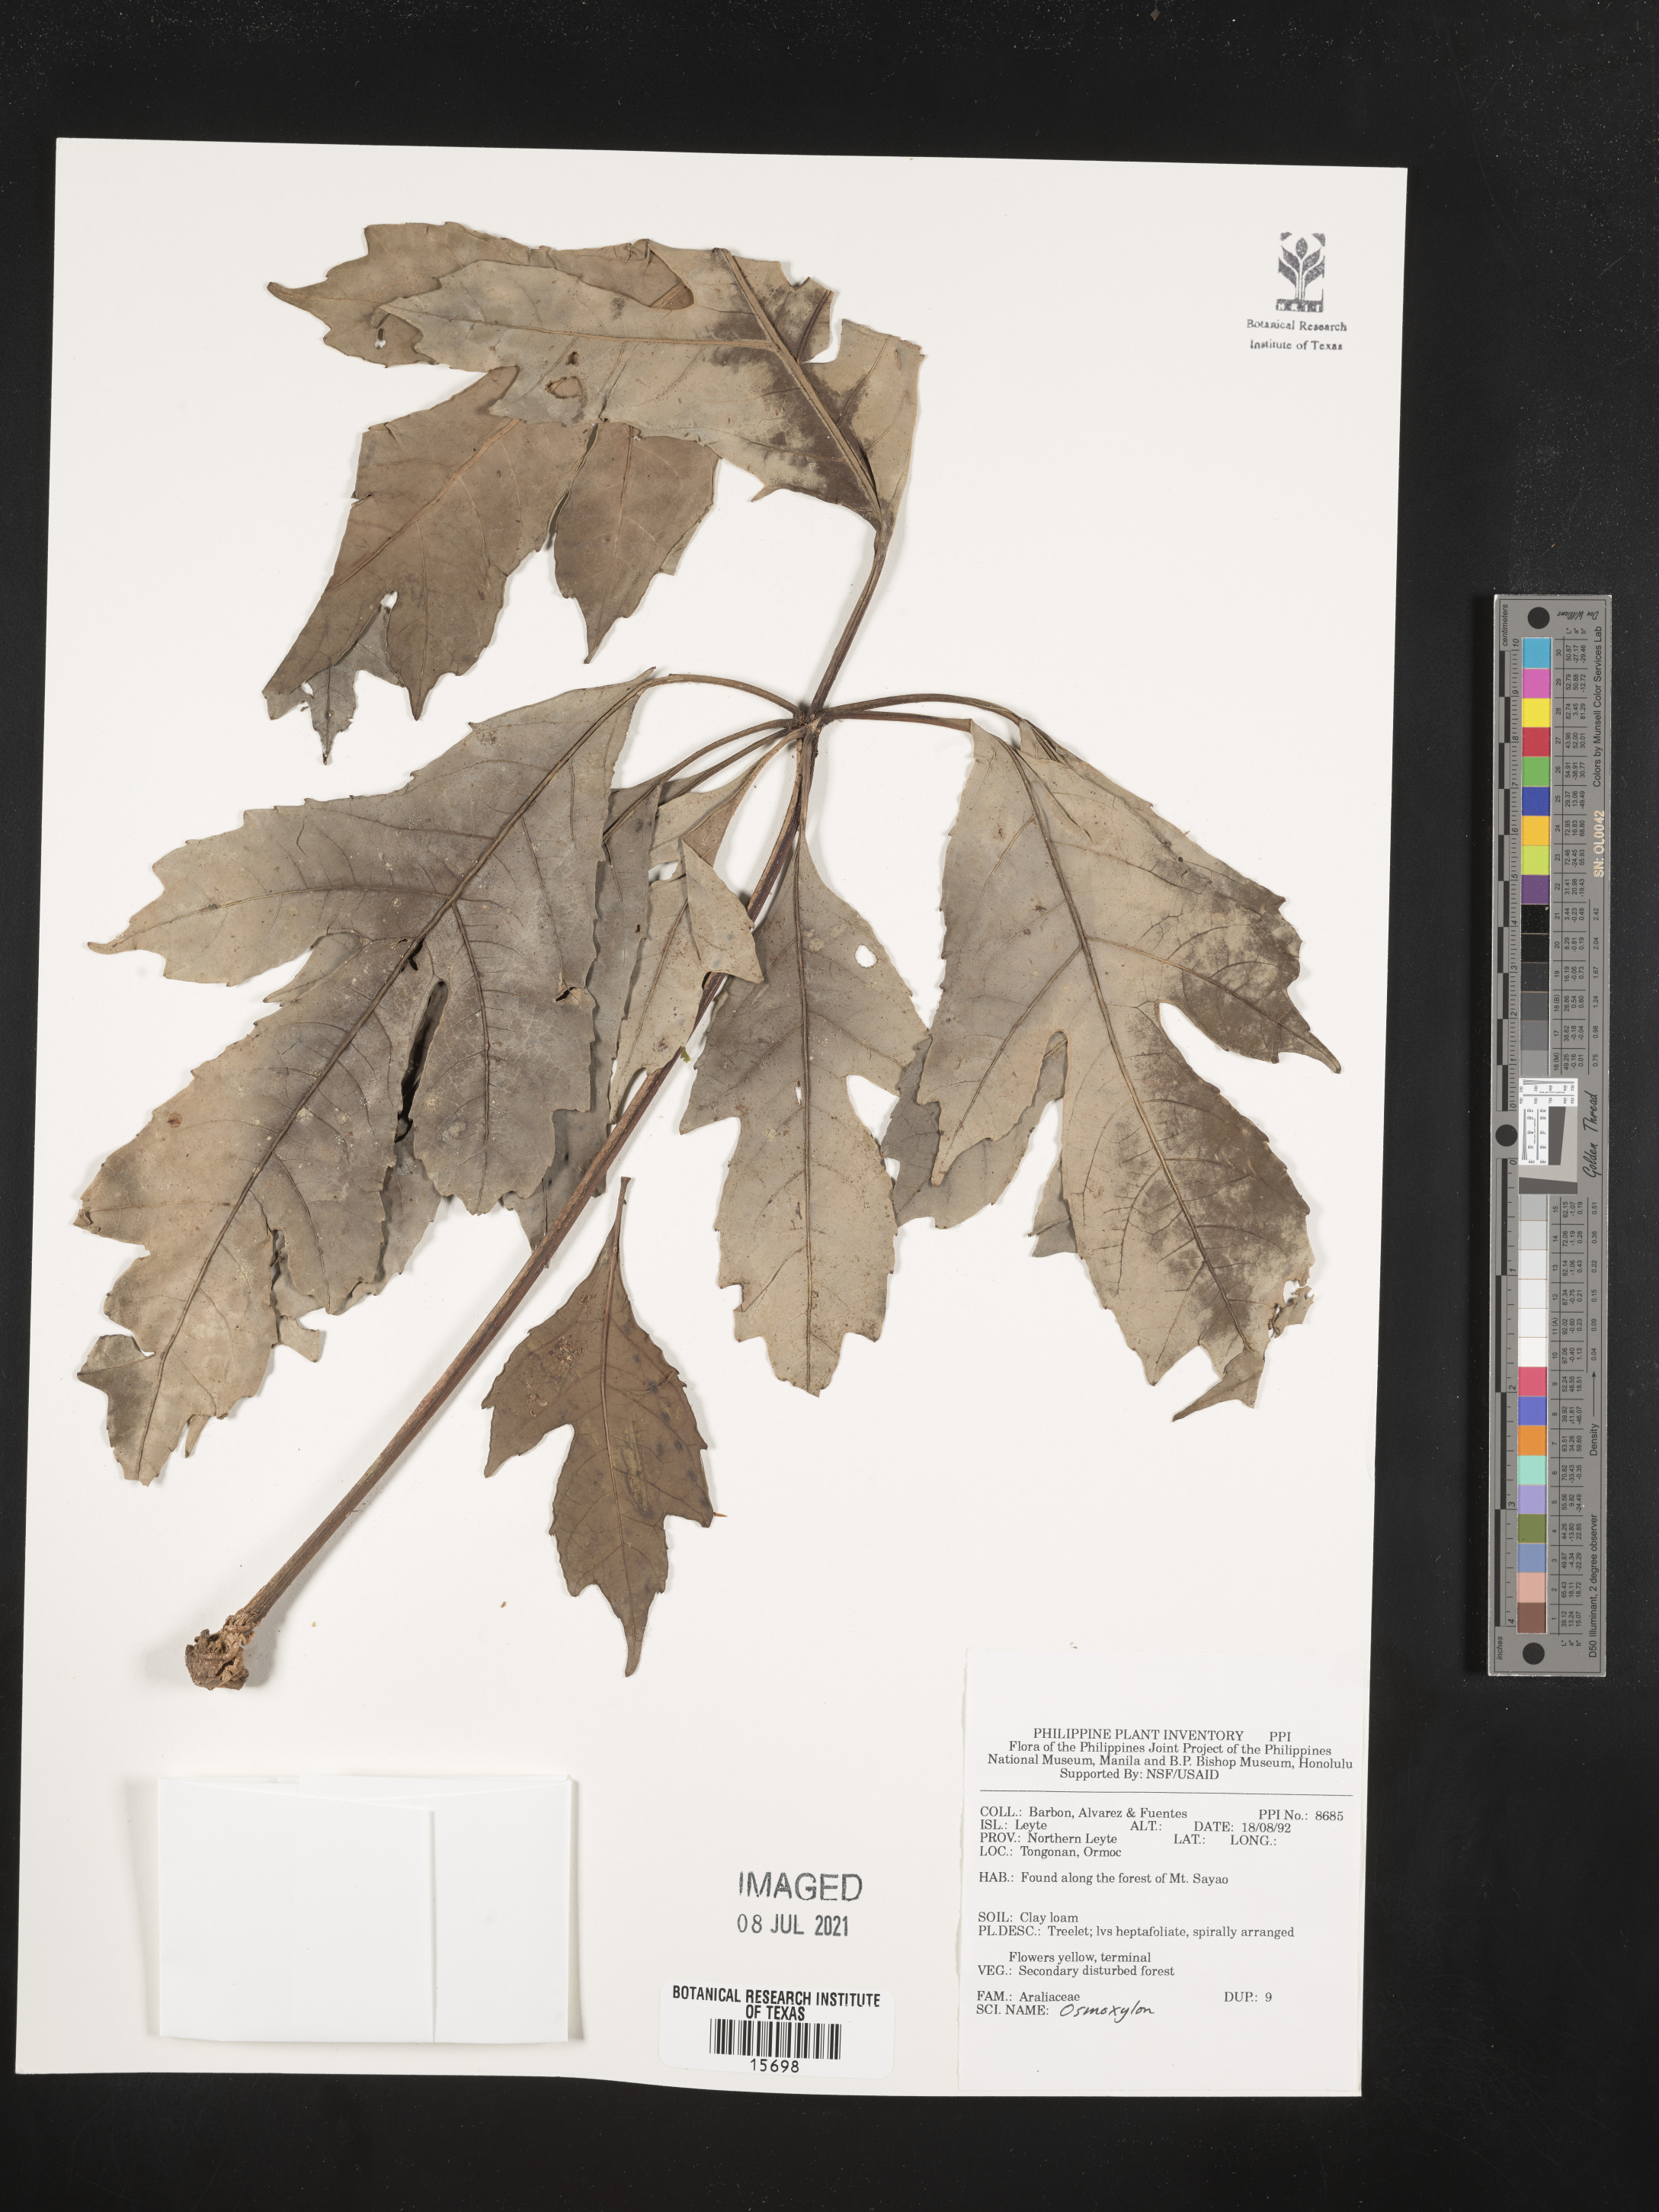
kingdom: Plantae
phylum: Tracheophyta
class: Magnoliopsida
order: Apiales
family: Araliaceae
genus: Osmoxylon
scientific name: Osmoxylon
